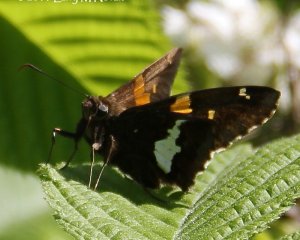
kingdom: Animalia
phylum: Arthropoda
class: Insecta
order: Lepidoptera
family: Hesperiidae
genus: Epargyreus
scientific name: Epargyreus clarus
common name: Silver-spotted Skipper
